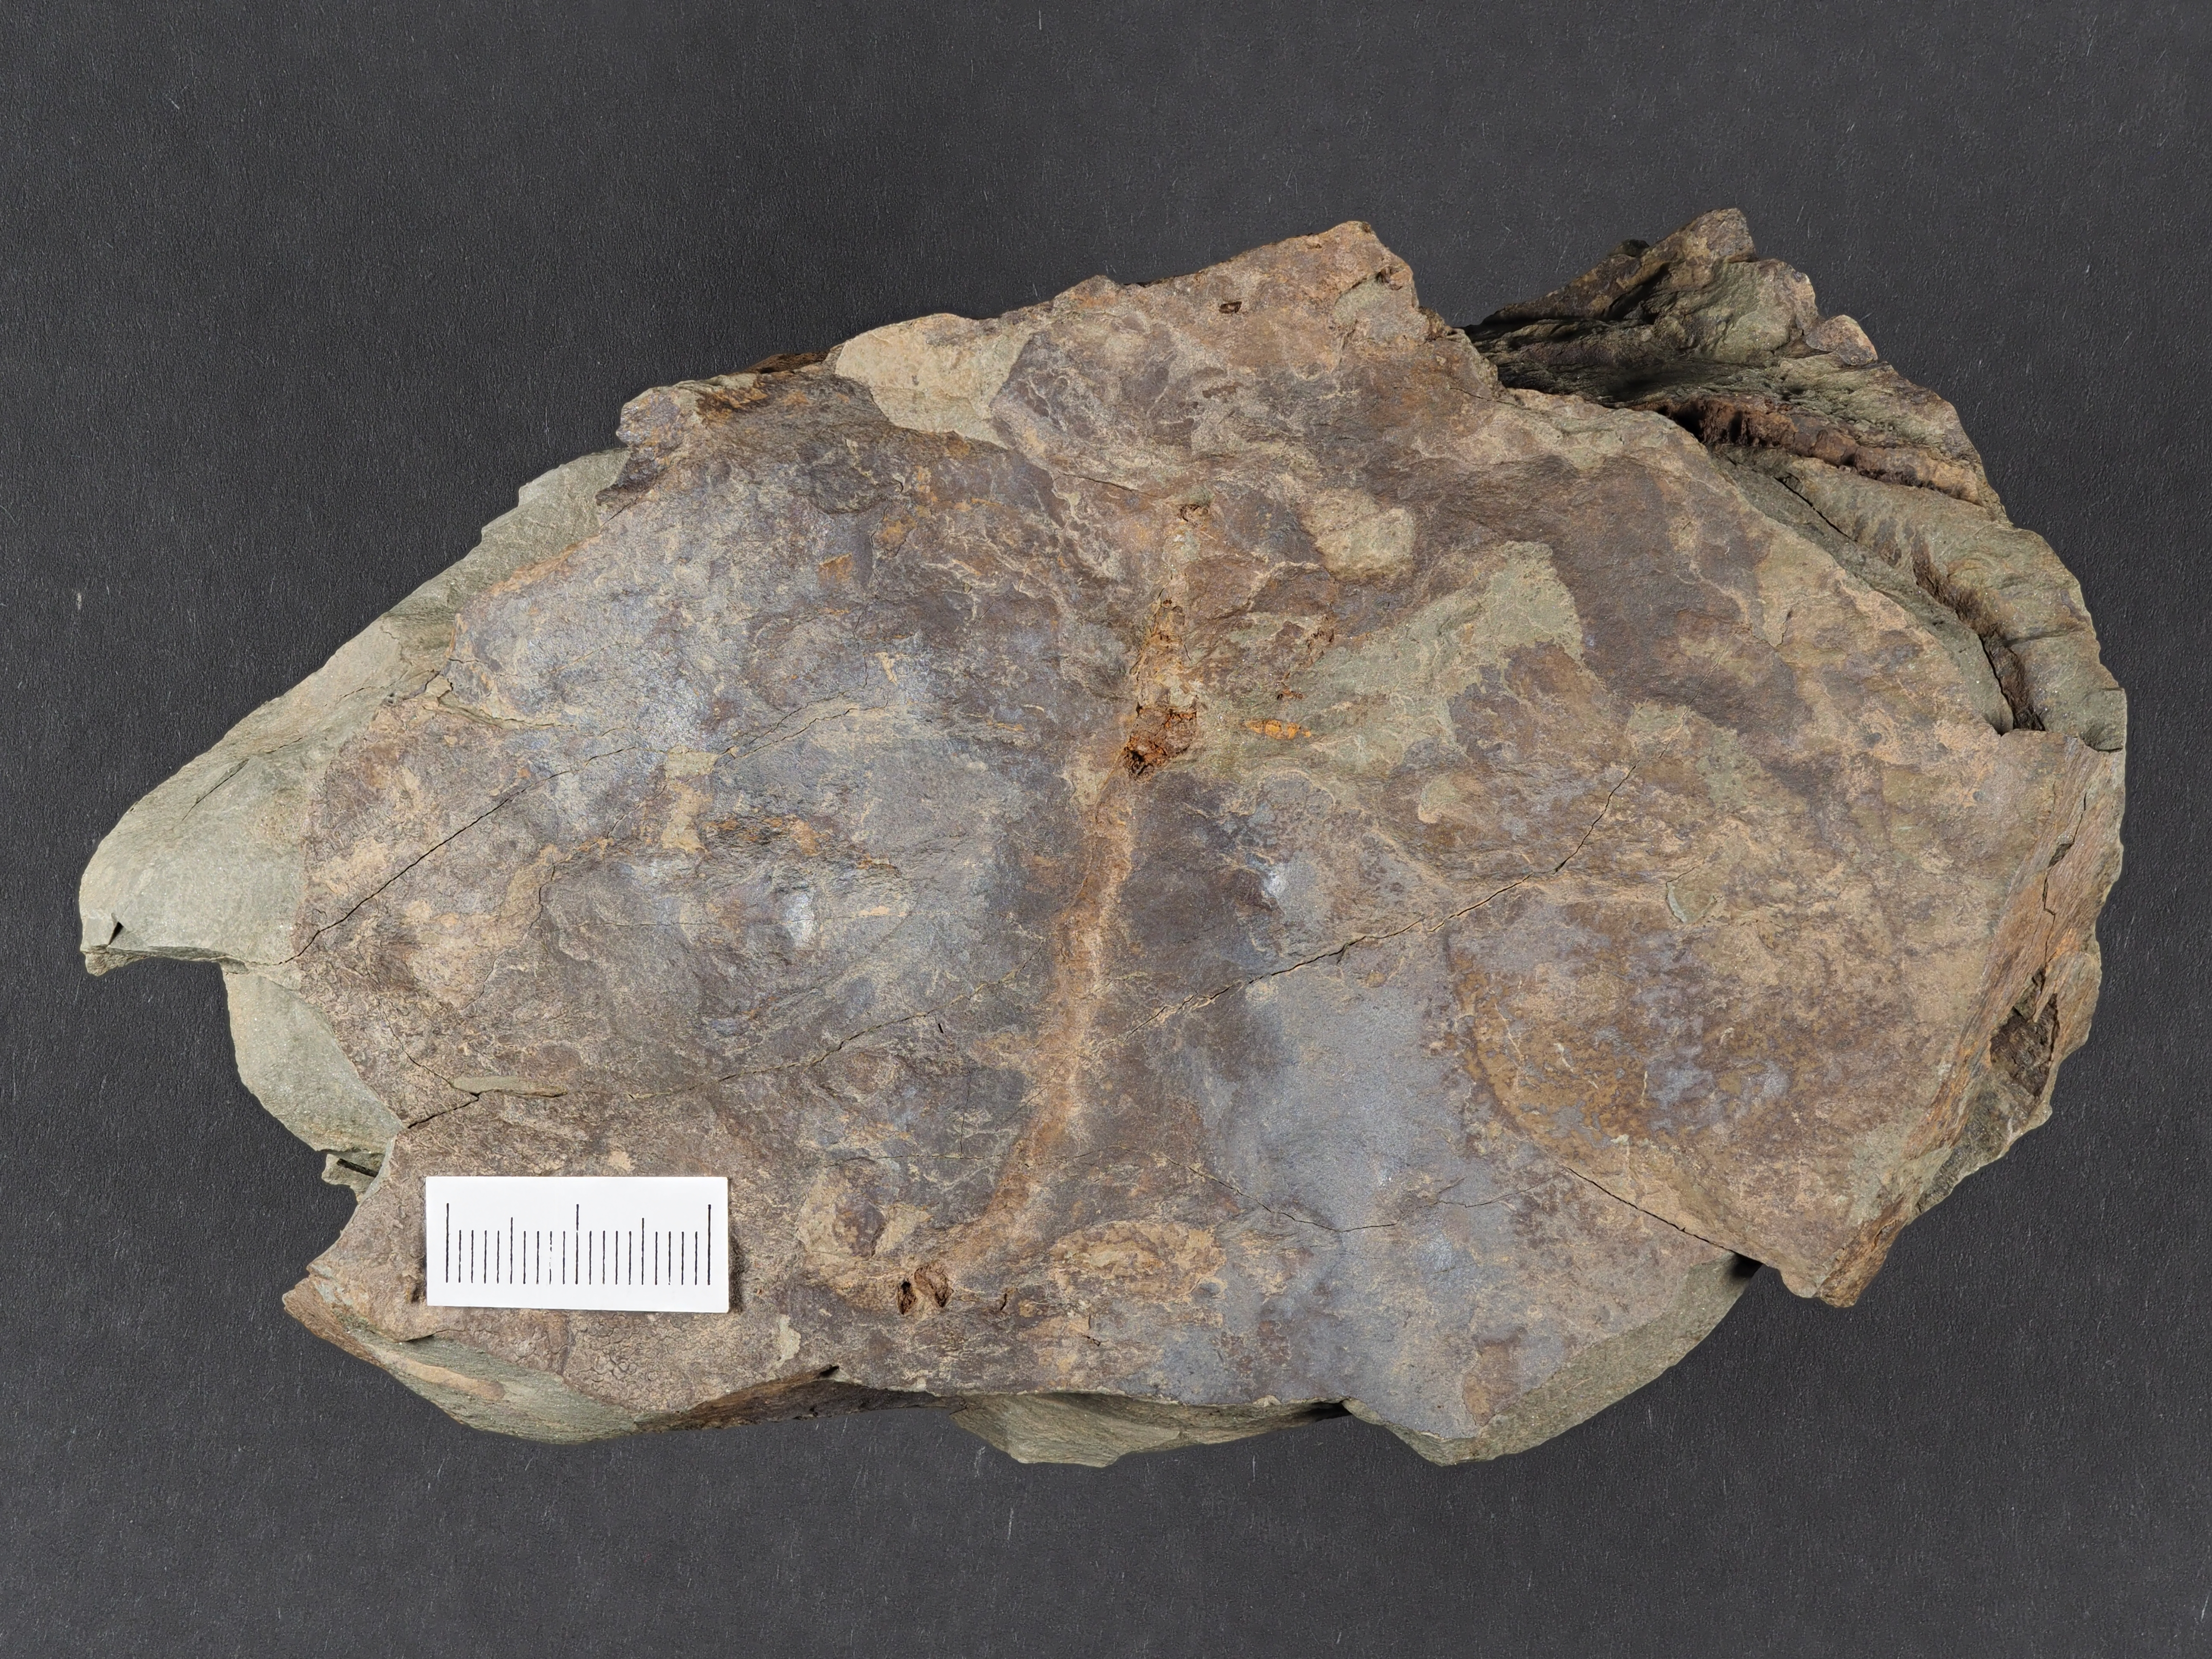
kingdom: Animalia
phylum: Echinodermata
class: Crinoidea
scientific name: Crinoidea
